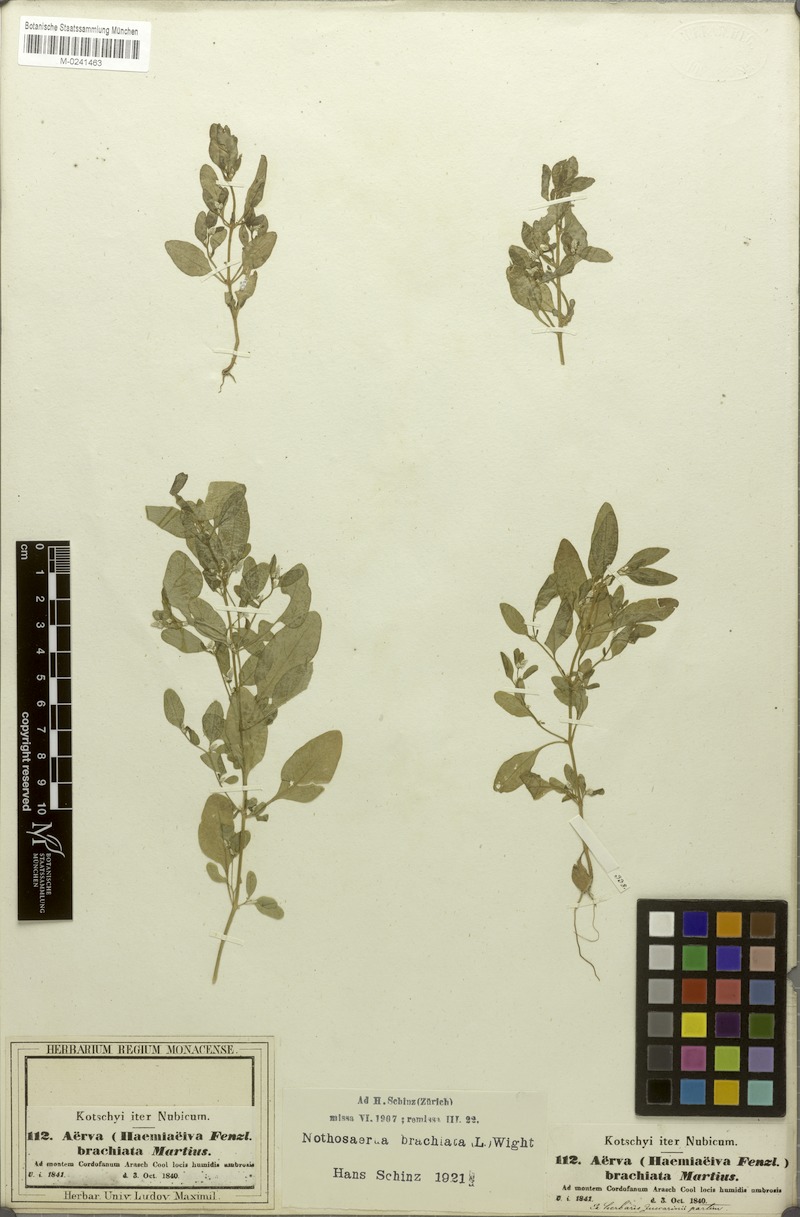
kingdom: Plantae
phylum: Tracheophyta
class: Magnoliopsida
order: Caryophyllales
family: Amaranthaceae
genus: Nothosaerva
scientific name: Nothosaerva brachiata
